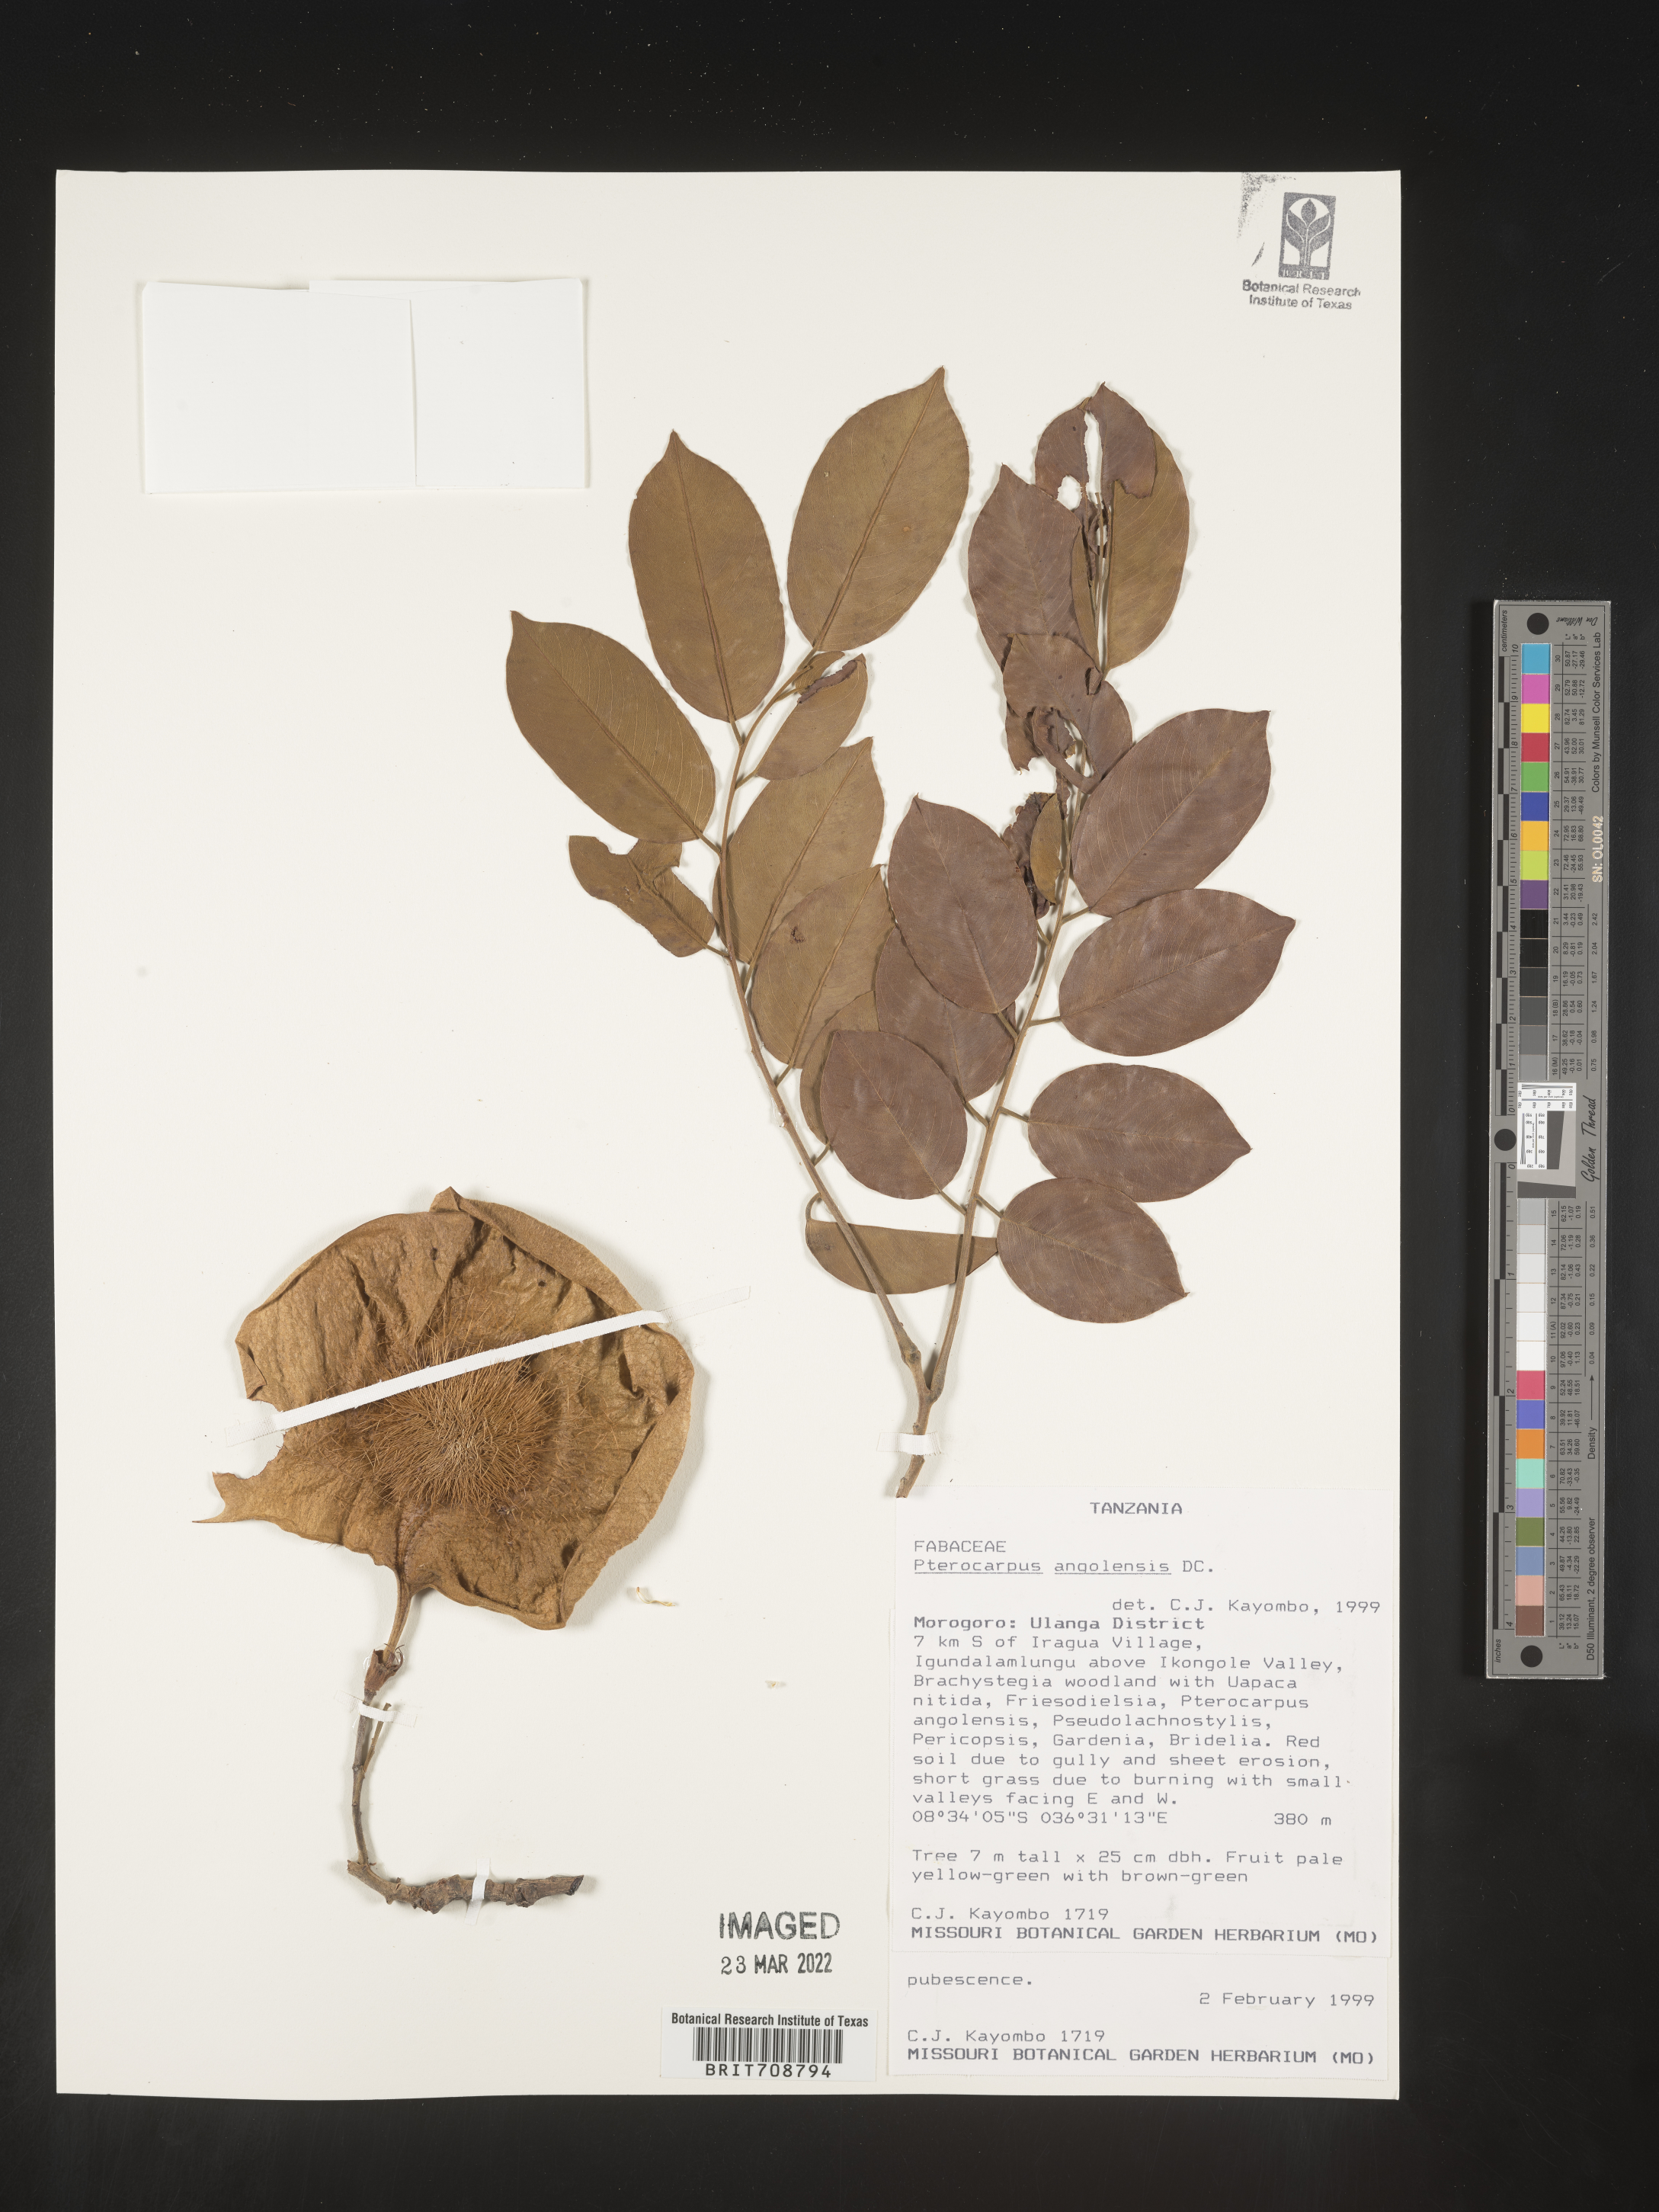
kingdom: Plantae
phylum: Tracheophyta
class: Magnoliopsida
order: Fabales
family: Fabaceae
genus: Pterocarpus
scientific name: Pterocarpus
